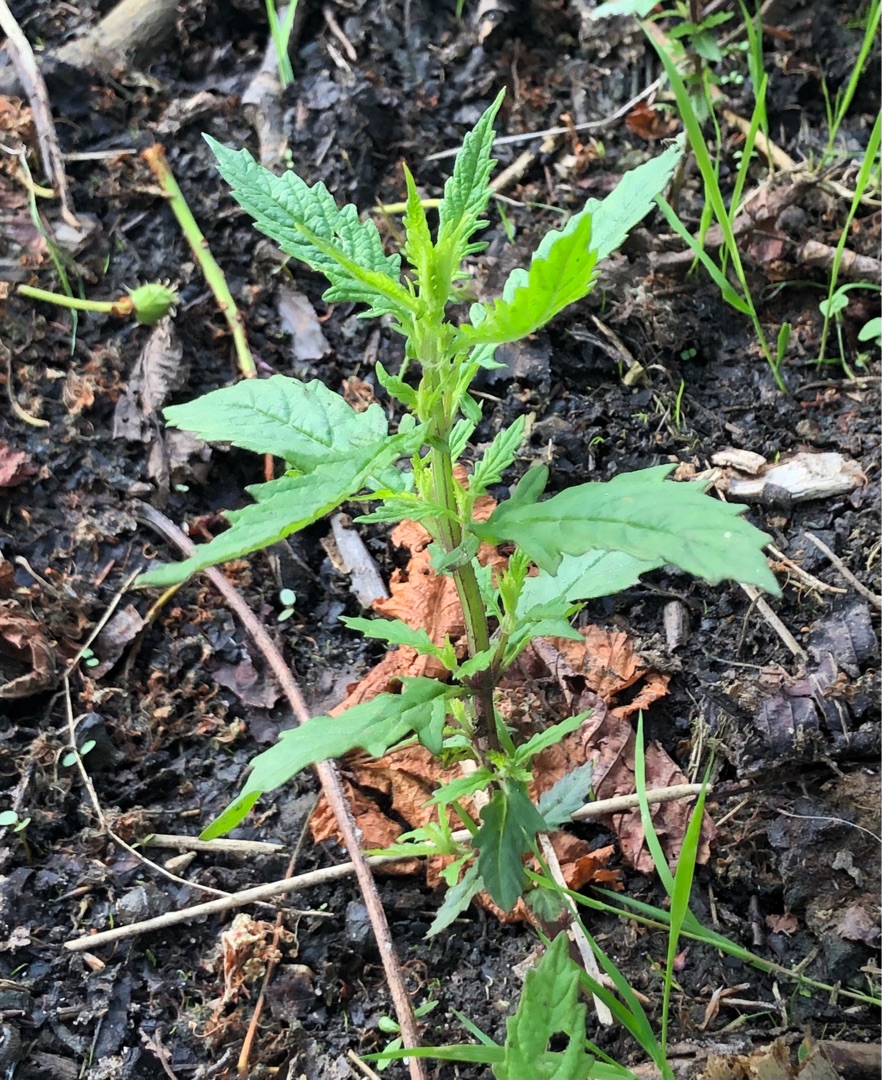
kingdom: Plantae
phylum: Tracheophyta
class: Magnoliopsida
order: Lamiales
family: Lamiaceae
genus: Lycopus
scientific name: Lycopus europaeus
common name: Sværtevæld
